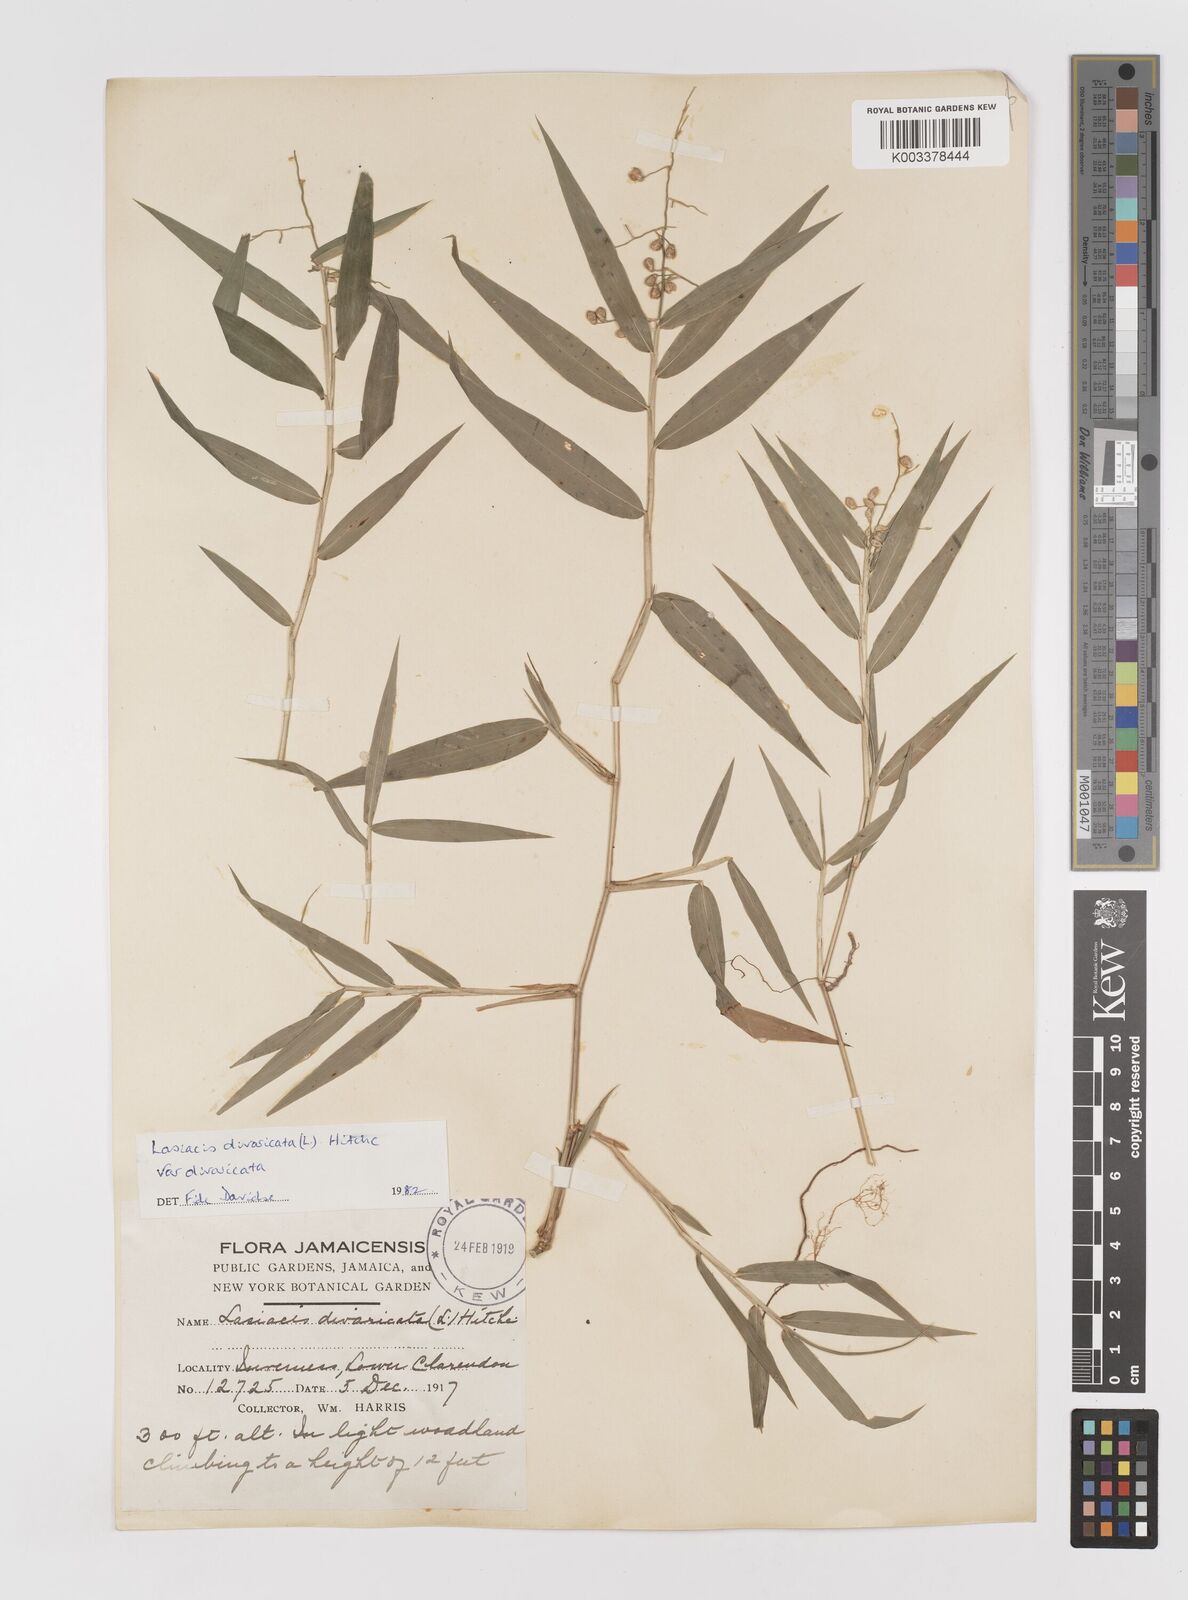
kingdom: Plantae
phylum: Tracheophyta
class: Liliopsida
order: Poales
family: Poaceae
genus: Lasiacis
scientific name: Lasiacis divaricata
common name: Smallcane
